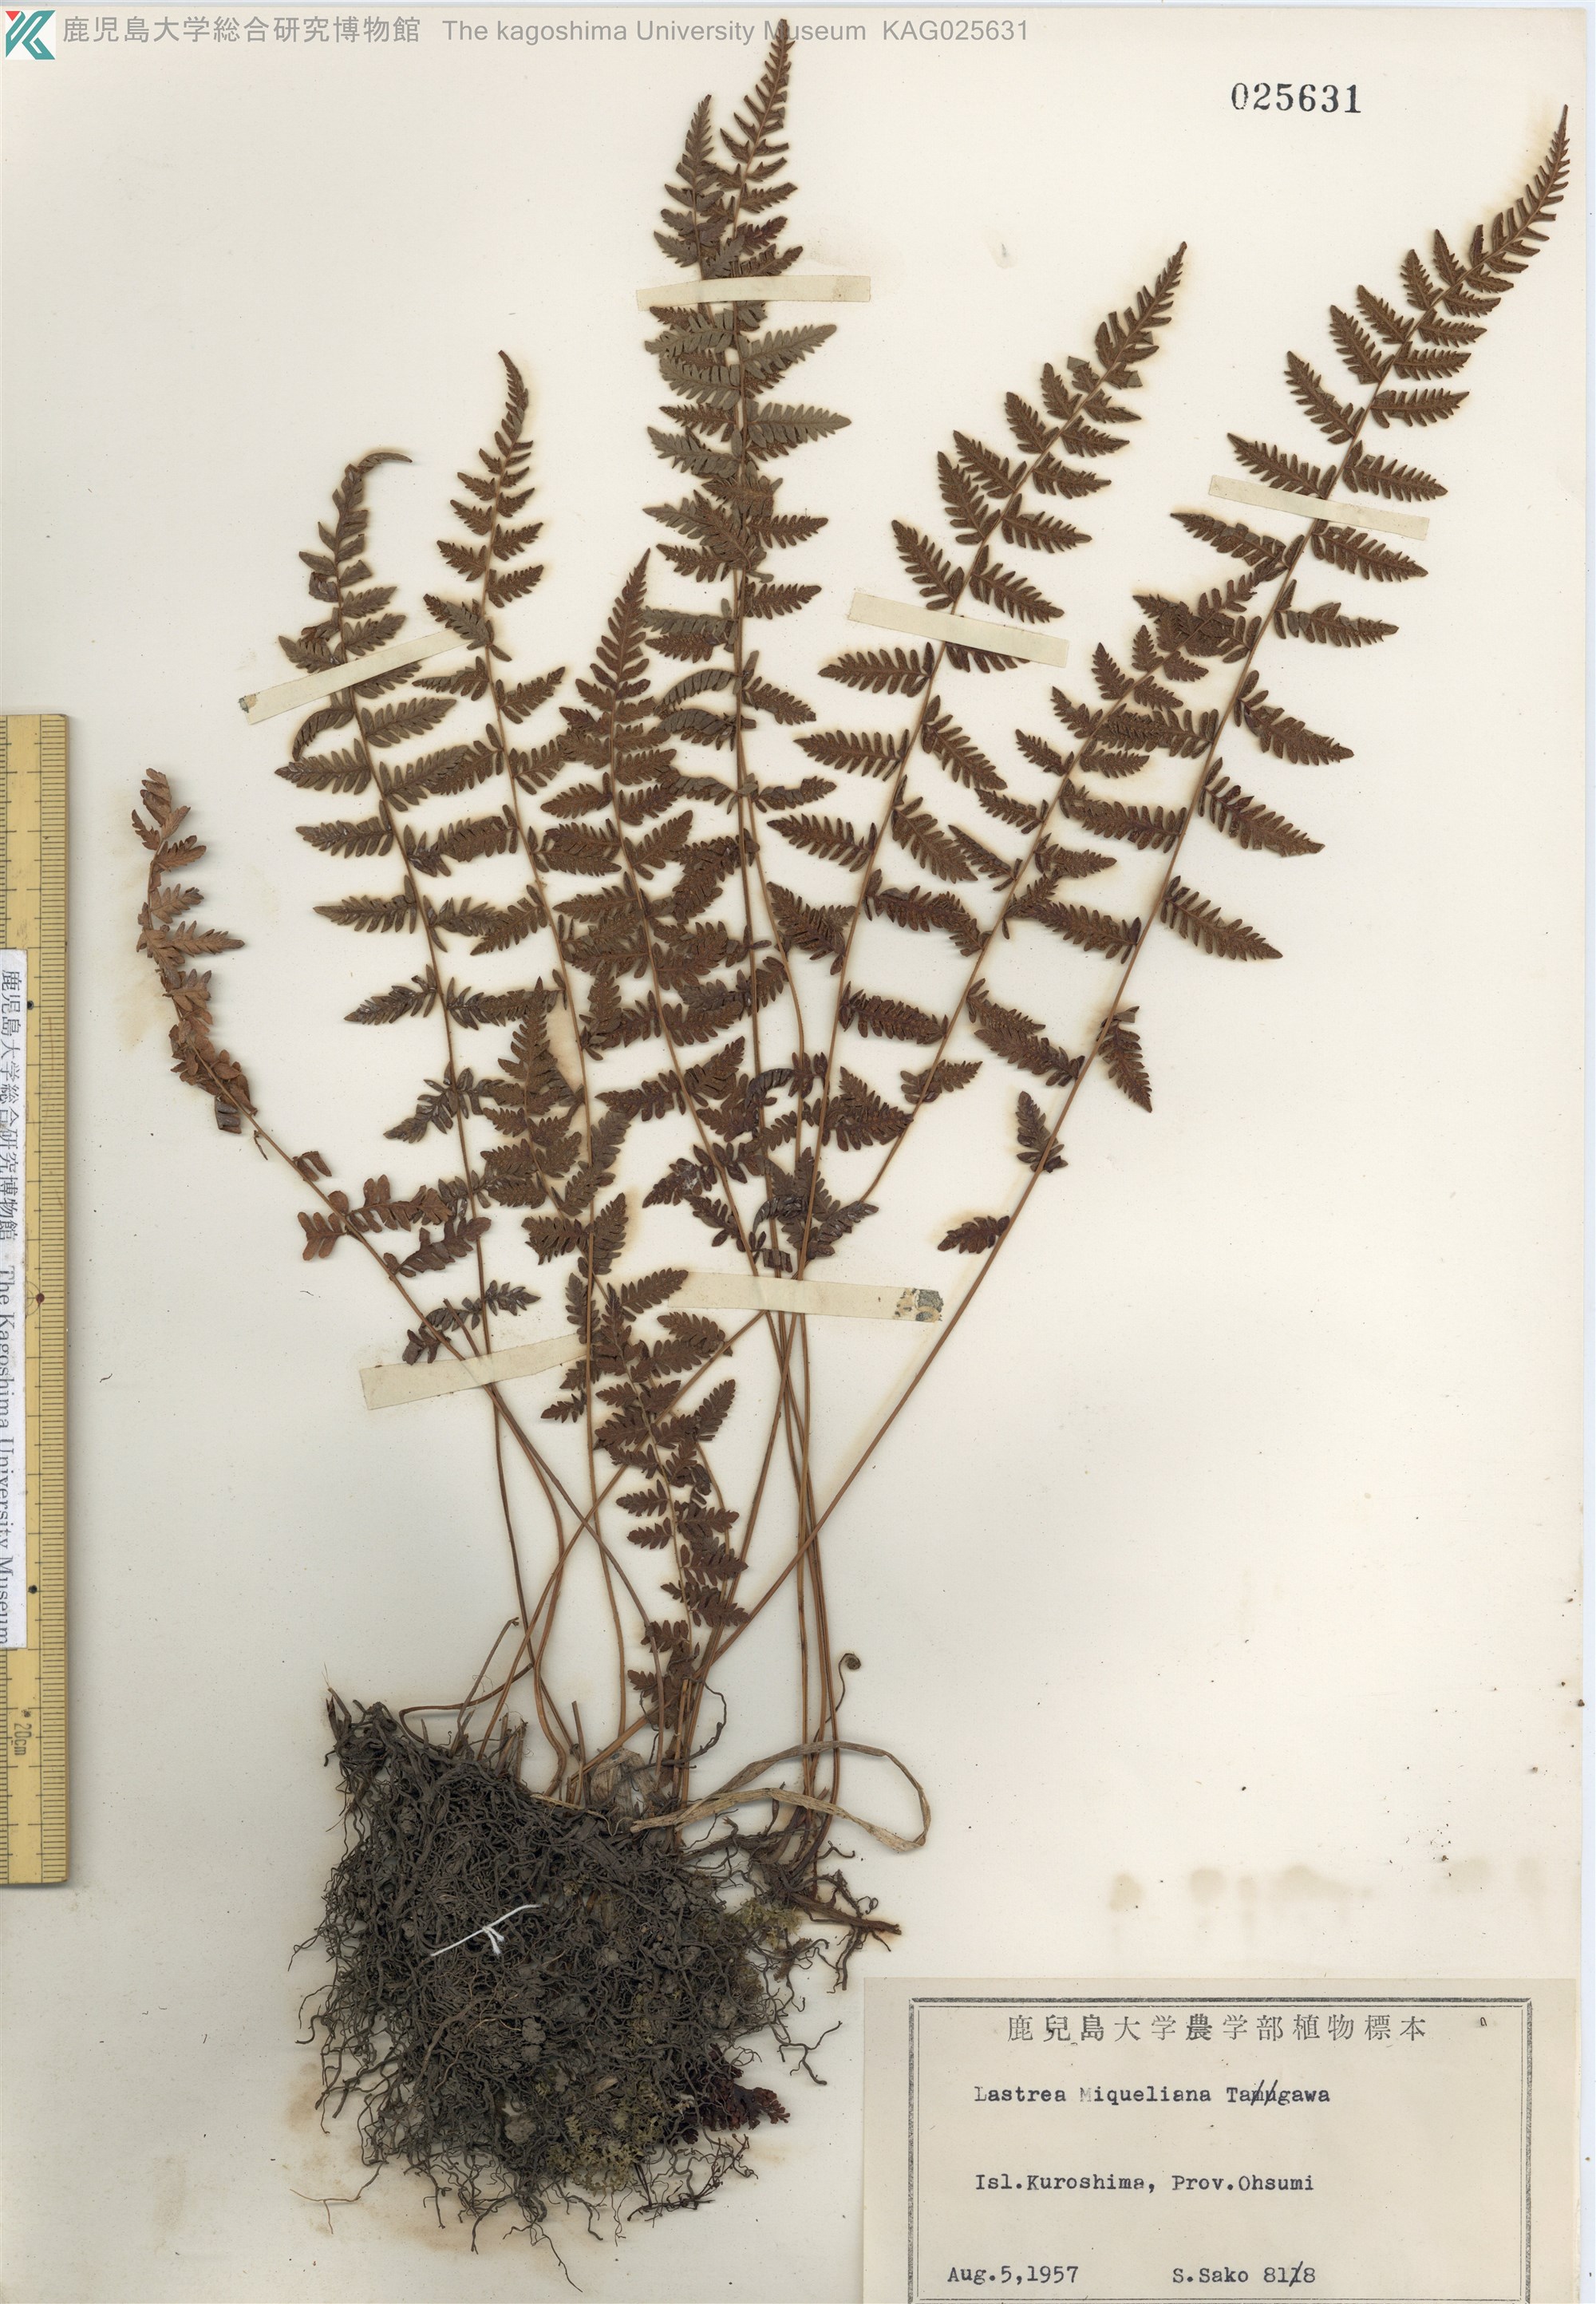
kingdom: Plantae
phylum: Tracheophyta
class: Polypodiopsida
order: Polypodiales
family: Thelypteridaceae
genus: Amauropelta
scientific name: Amauropelta angustifrons
